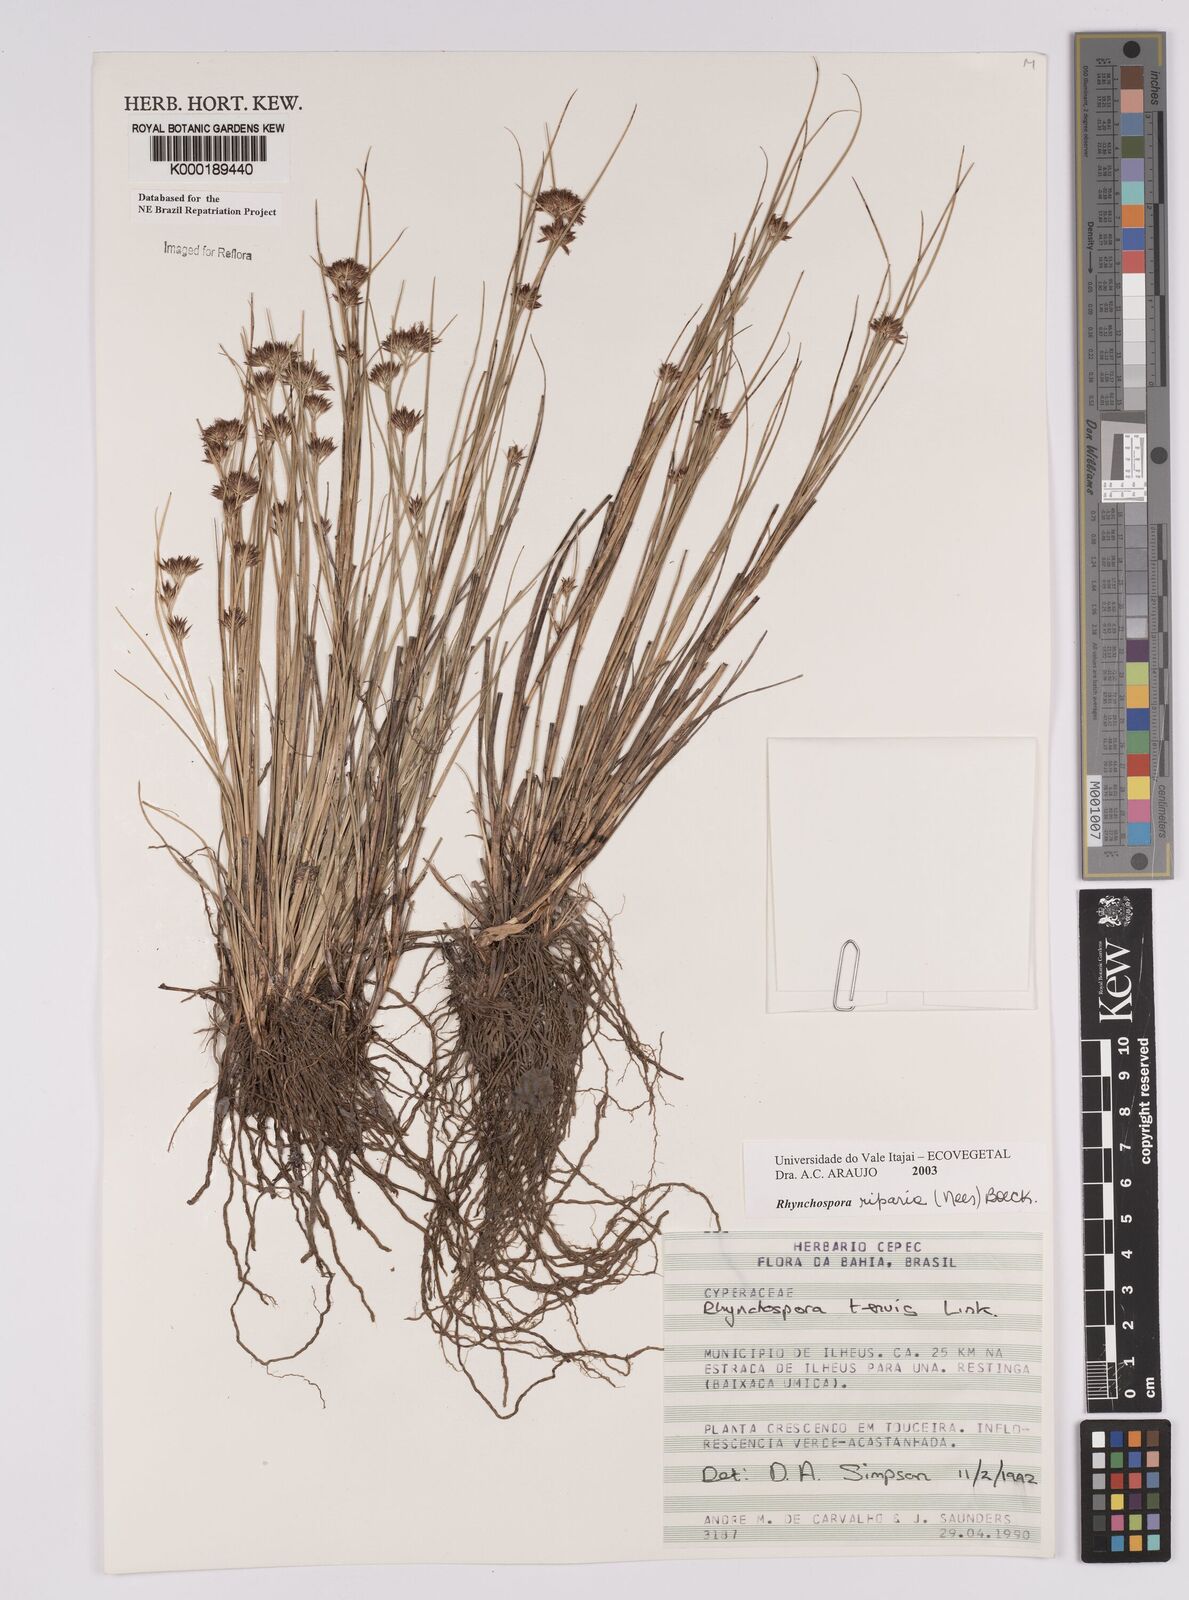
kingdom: Plantae
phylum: Tracheophyta
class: Liliopsida
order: Poales
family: Cyperaceae
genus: Rhynchospora
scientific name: Rhynchospora riparia
